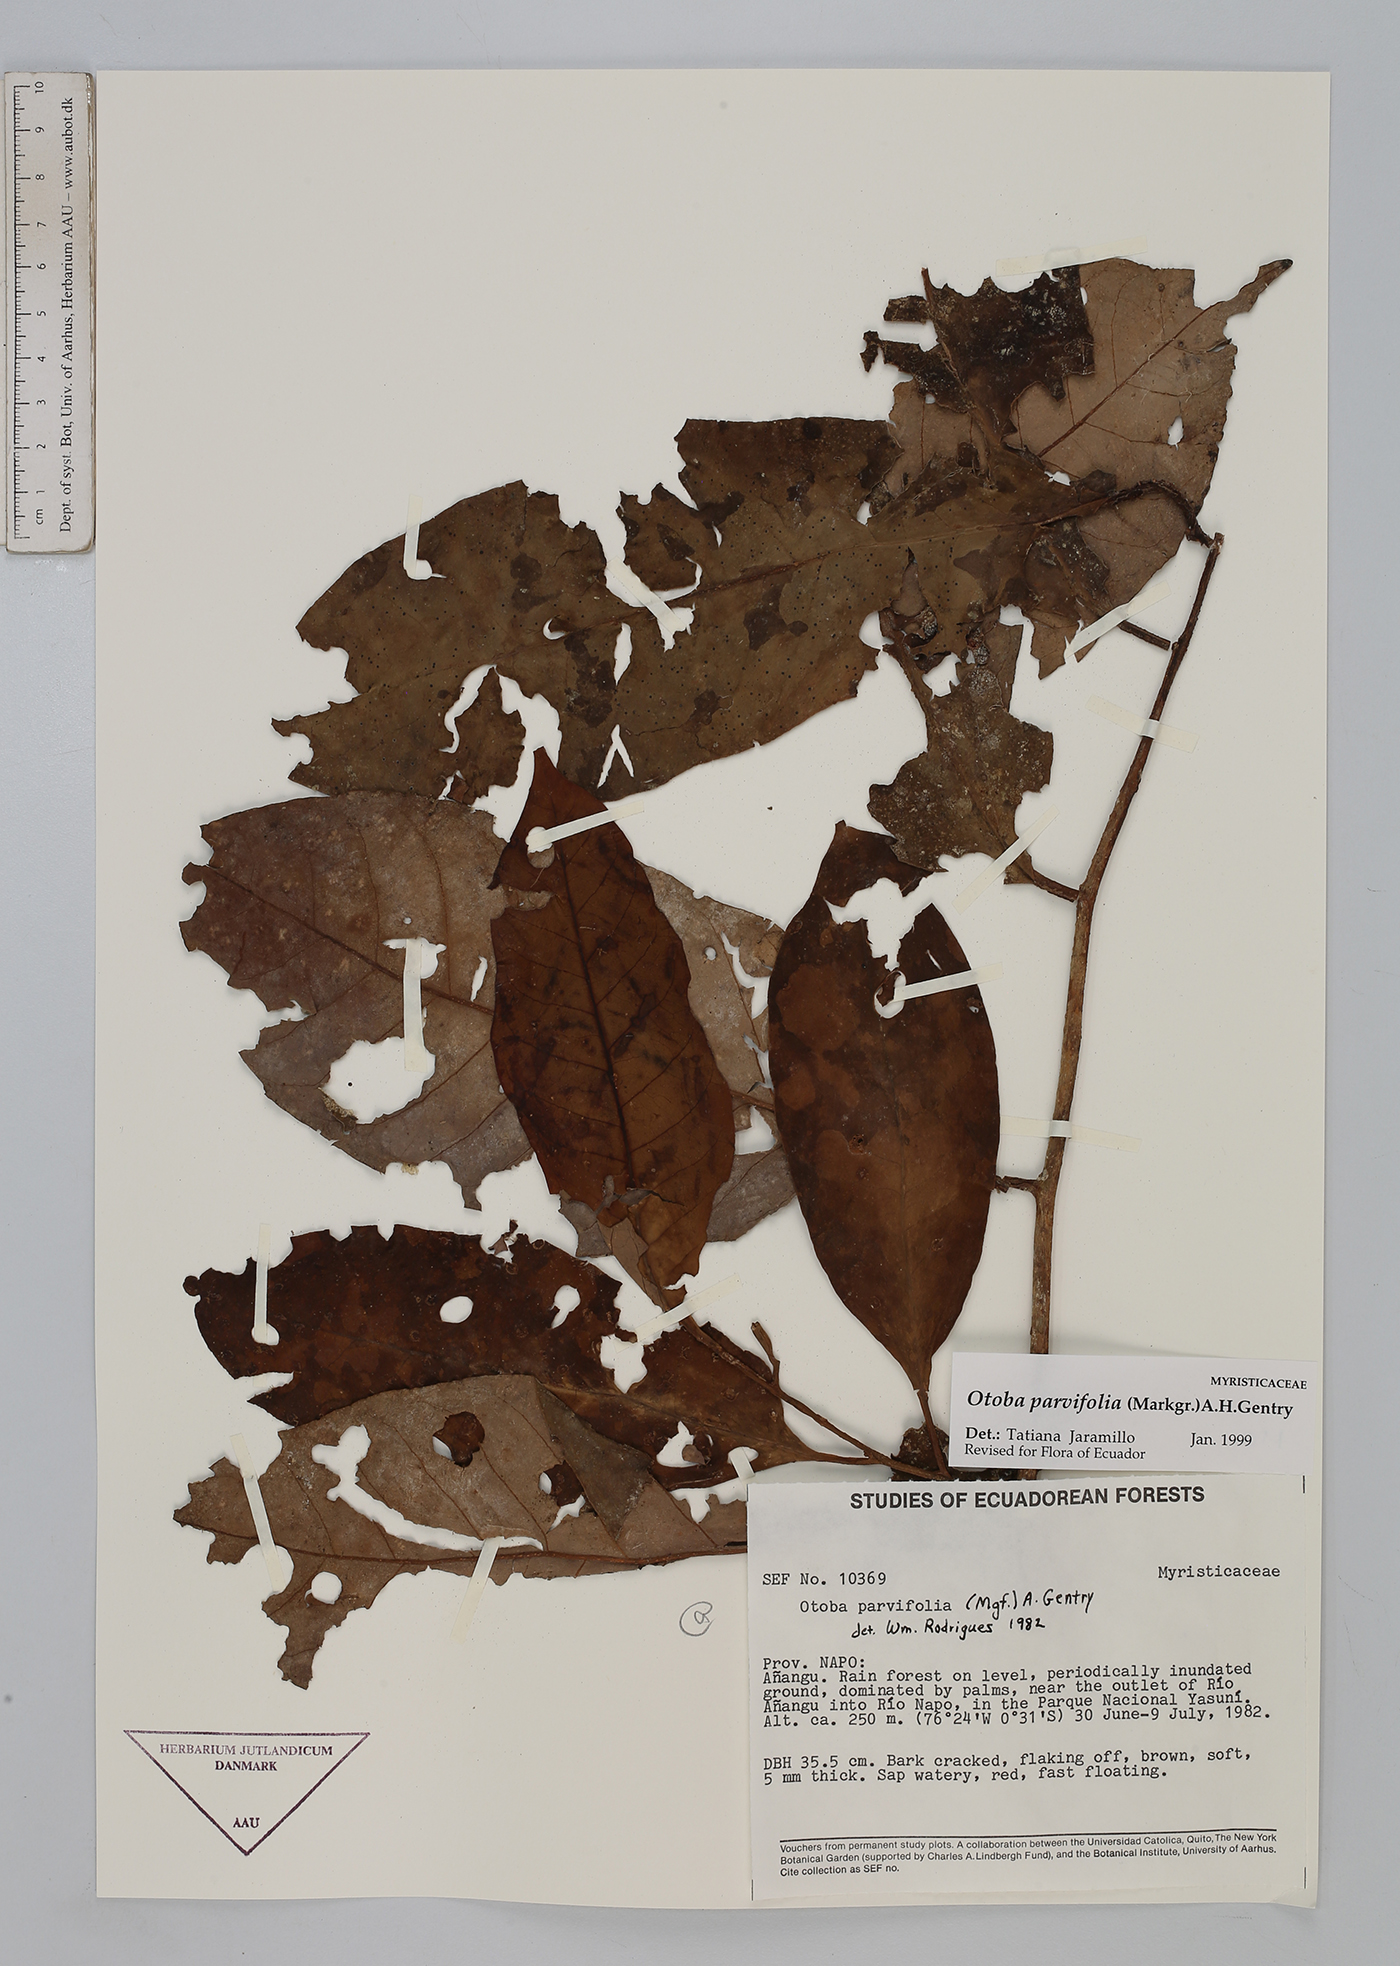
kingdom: Plantae
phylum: Tracheophyta
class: Magnoliopsida
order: Magnoliales
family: Myristicaceae
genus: Otoba
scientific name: Otoba parvifolia
